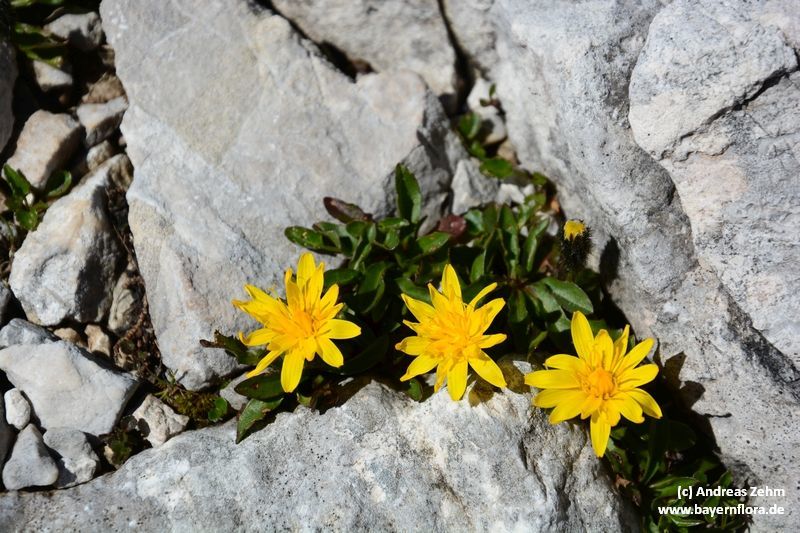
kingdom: Plantae
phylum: Tracheophyta
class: Magnoliopsida
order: Asterales
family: Asteraceae
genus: Scorzoneroides
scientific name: Scorzoneroides montana
